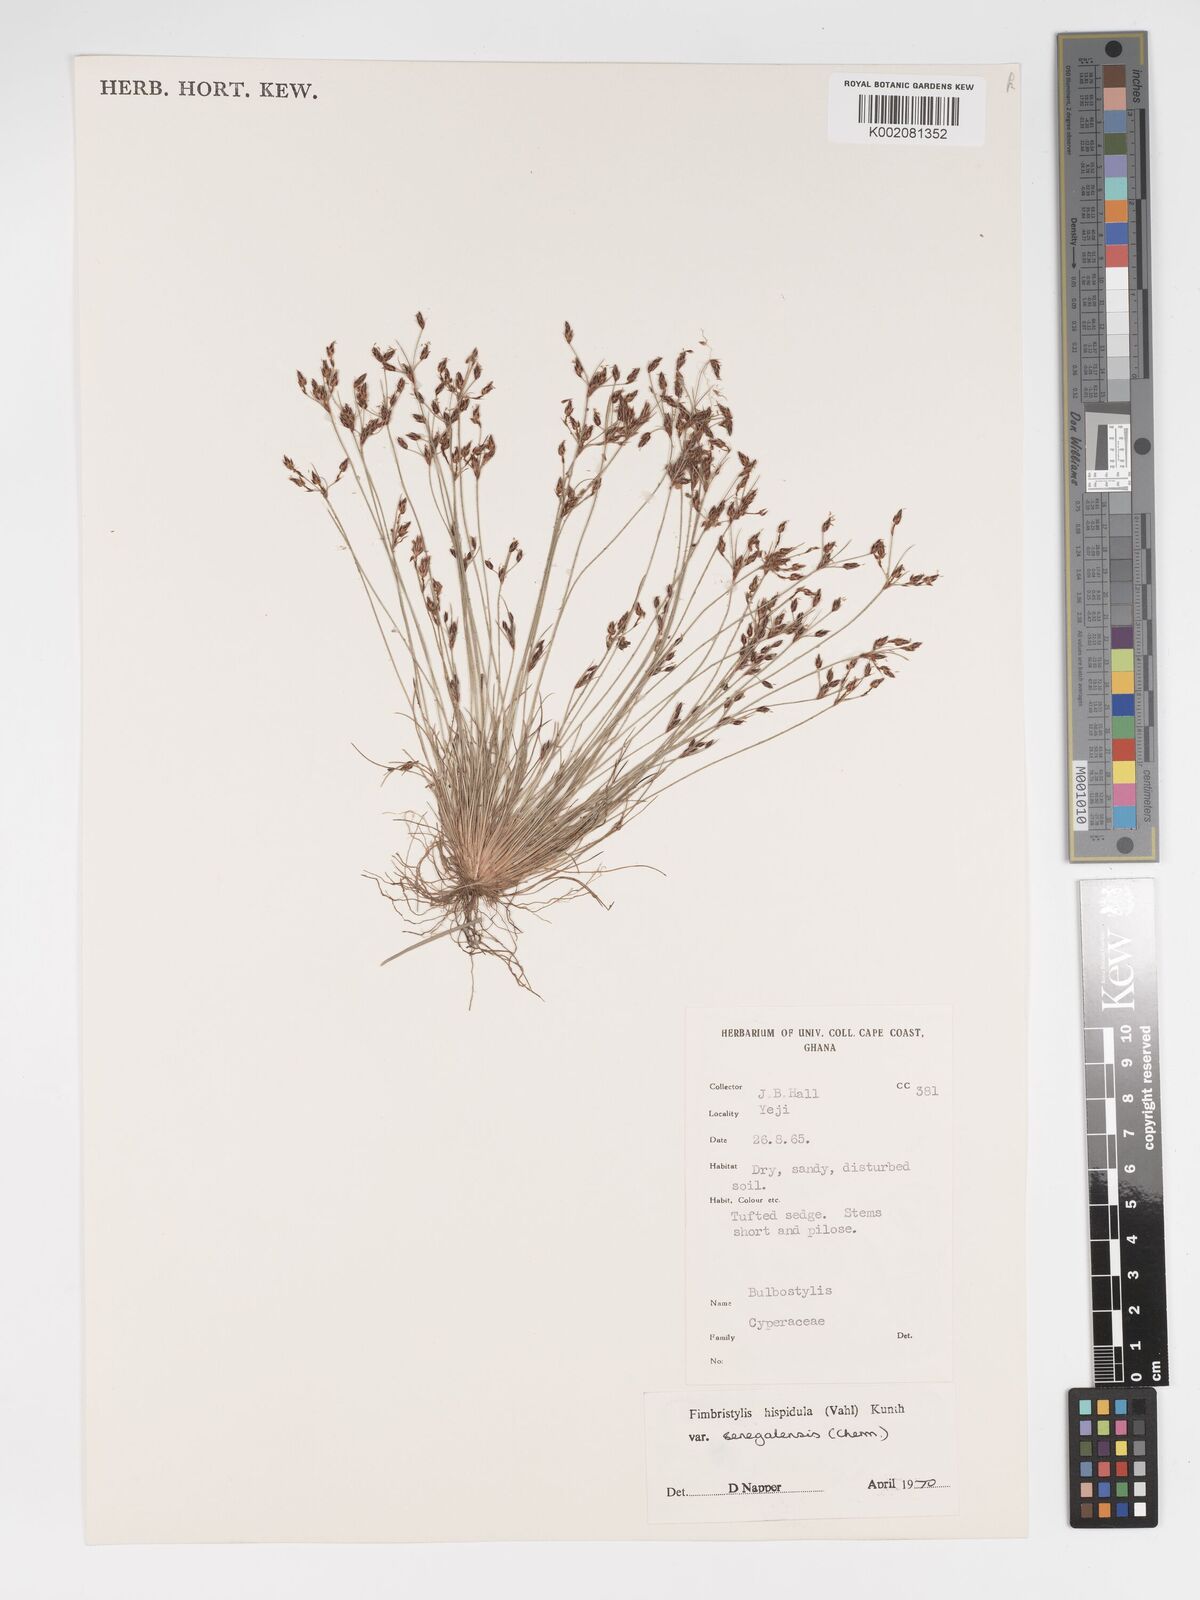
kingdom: Plantae
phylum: Tracheophyta
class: Liliopsida
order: Poales
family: Cyperaceae
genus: Bulbostylis
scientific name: Bulbostylis hispidula
